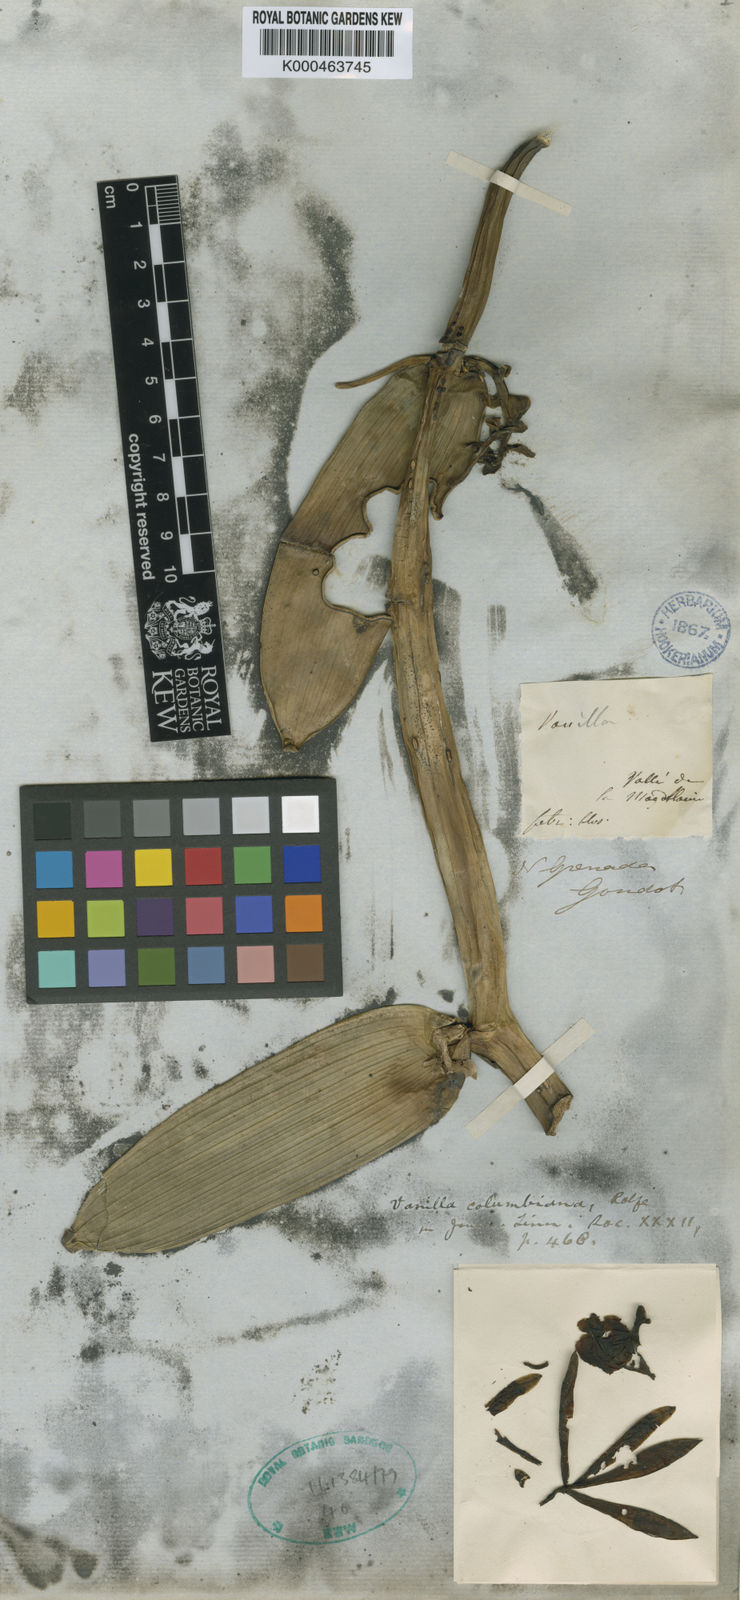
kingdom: Plantae
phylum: Tracheophyta
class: Liliopsida
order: Asparagales
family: Orchidaceae
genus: Vanilla
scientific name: Vanilla columbiana
